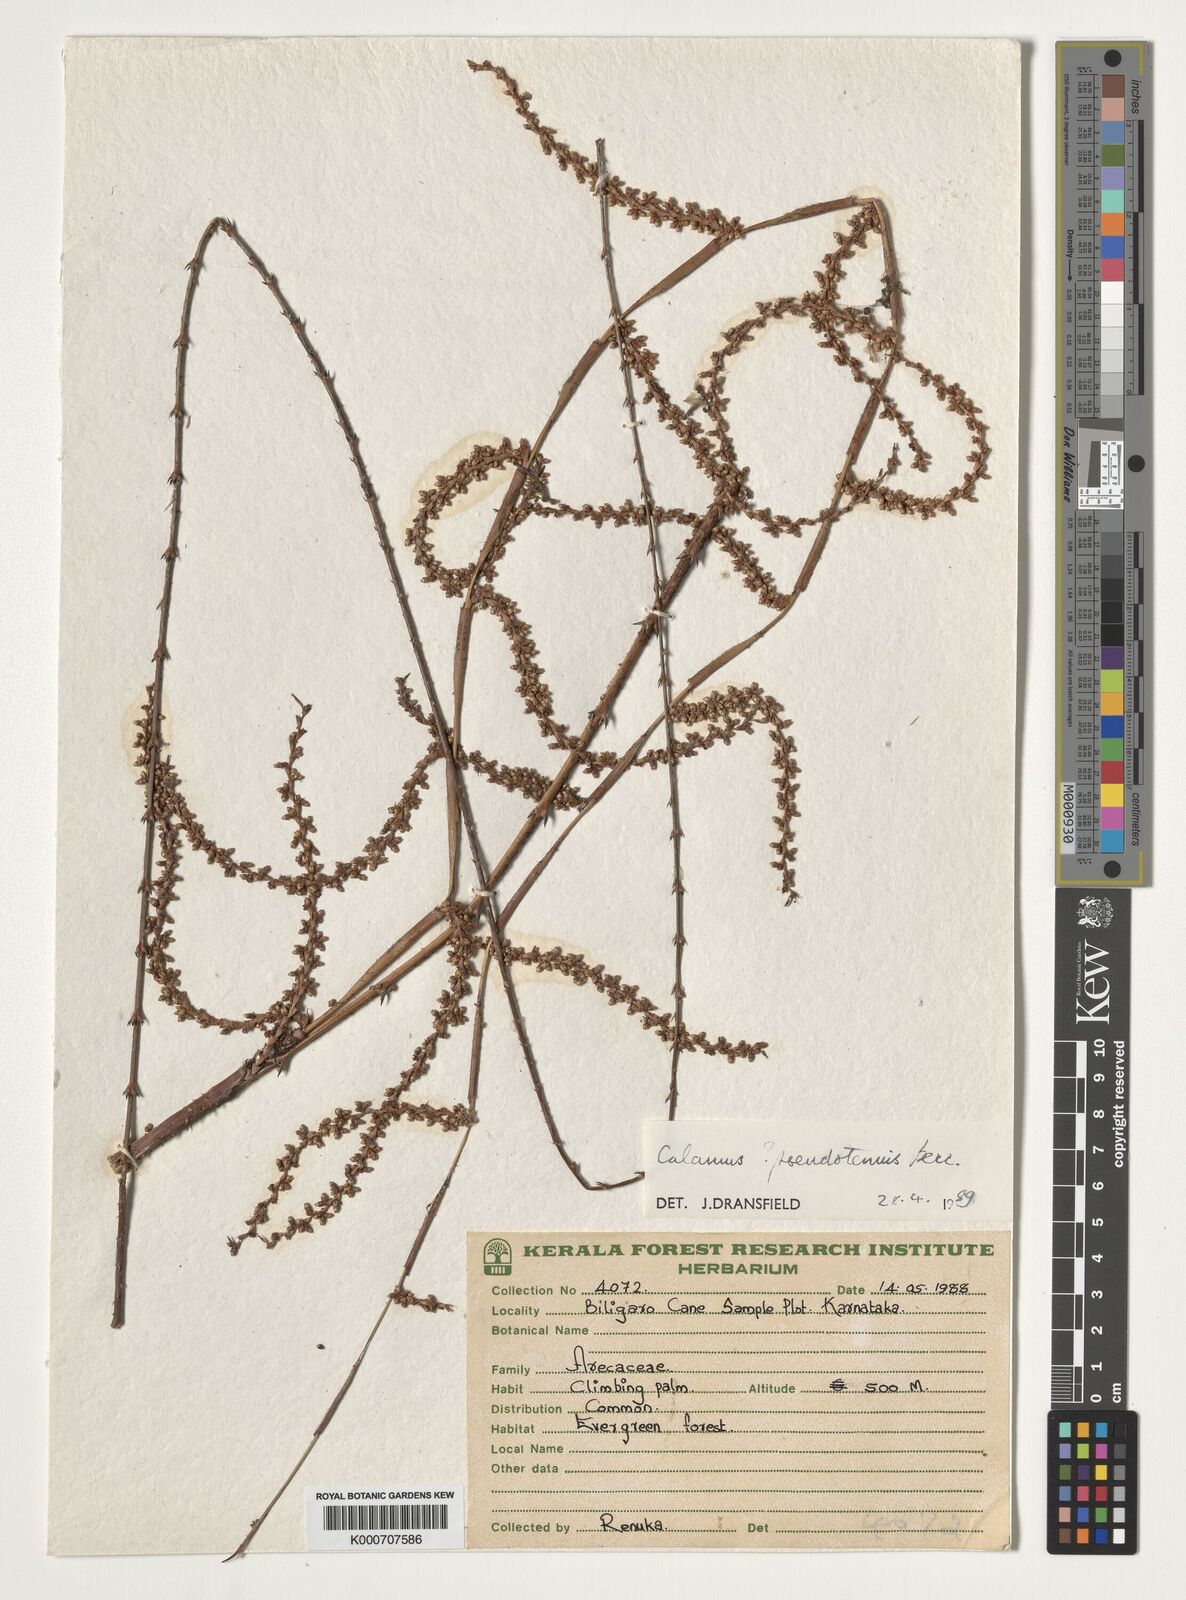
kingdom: Plantae
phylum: Tracheophyta
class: Liliopsida
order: Arecales
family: Arecaceae
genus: Calamus
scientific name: Calamus pseudotenuis
